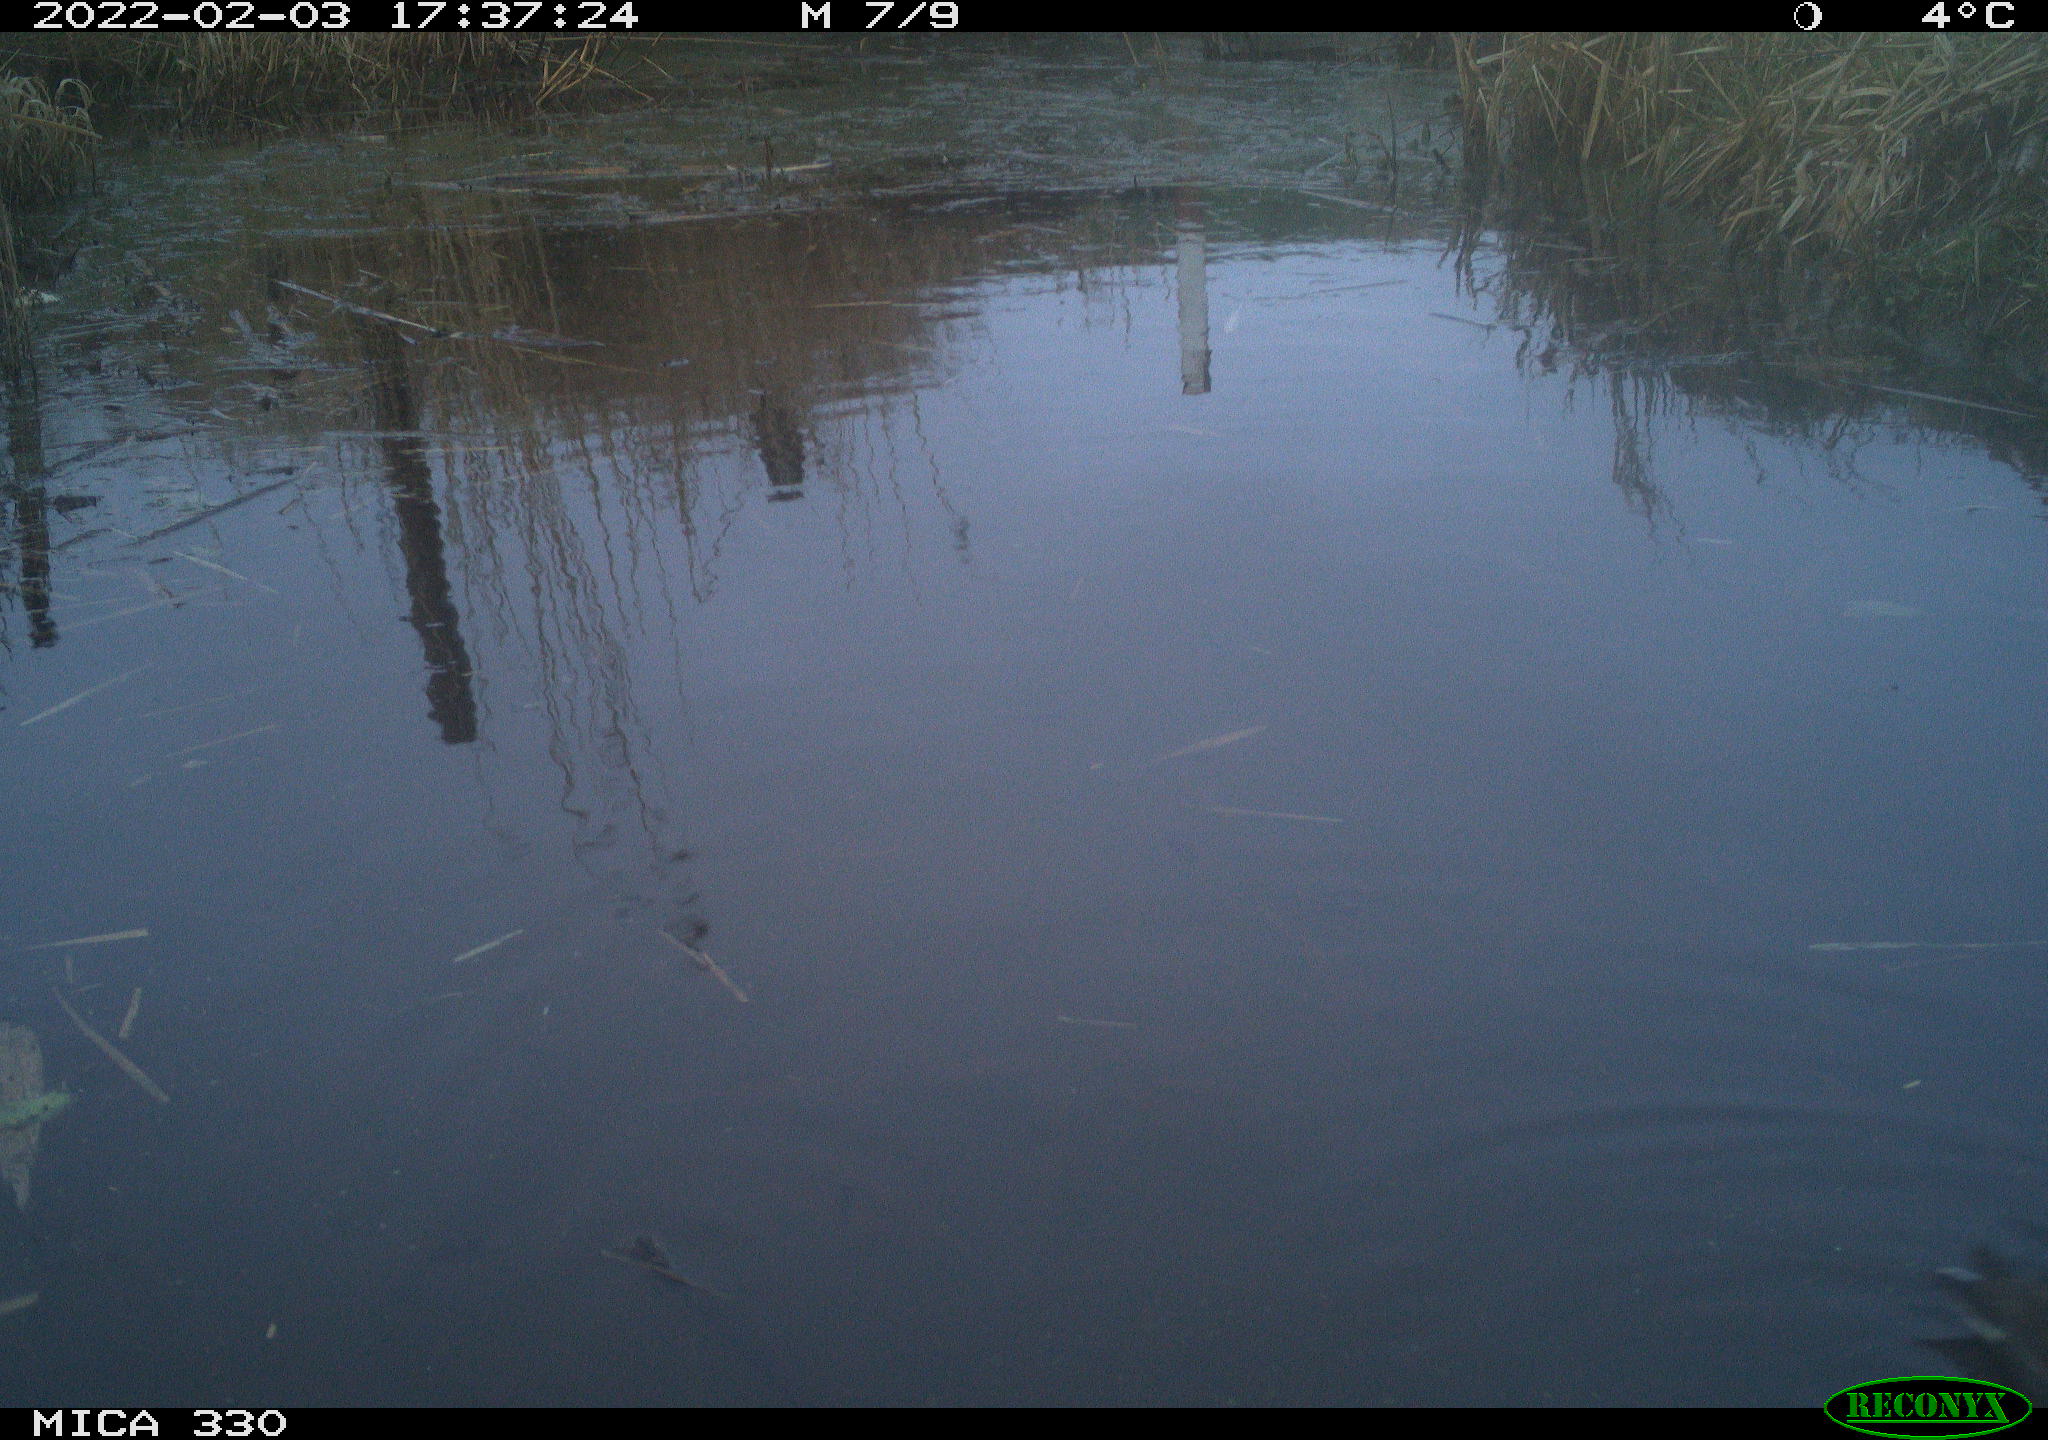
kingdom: Animalia
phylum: Chordata
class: Aves
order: Gruiformes
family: Rallidae
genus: Gallinula
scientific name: Gallinula chloropus
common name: Common moorhen
